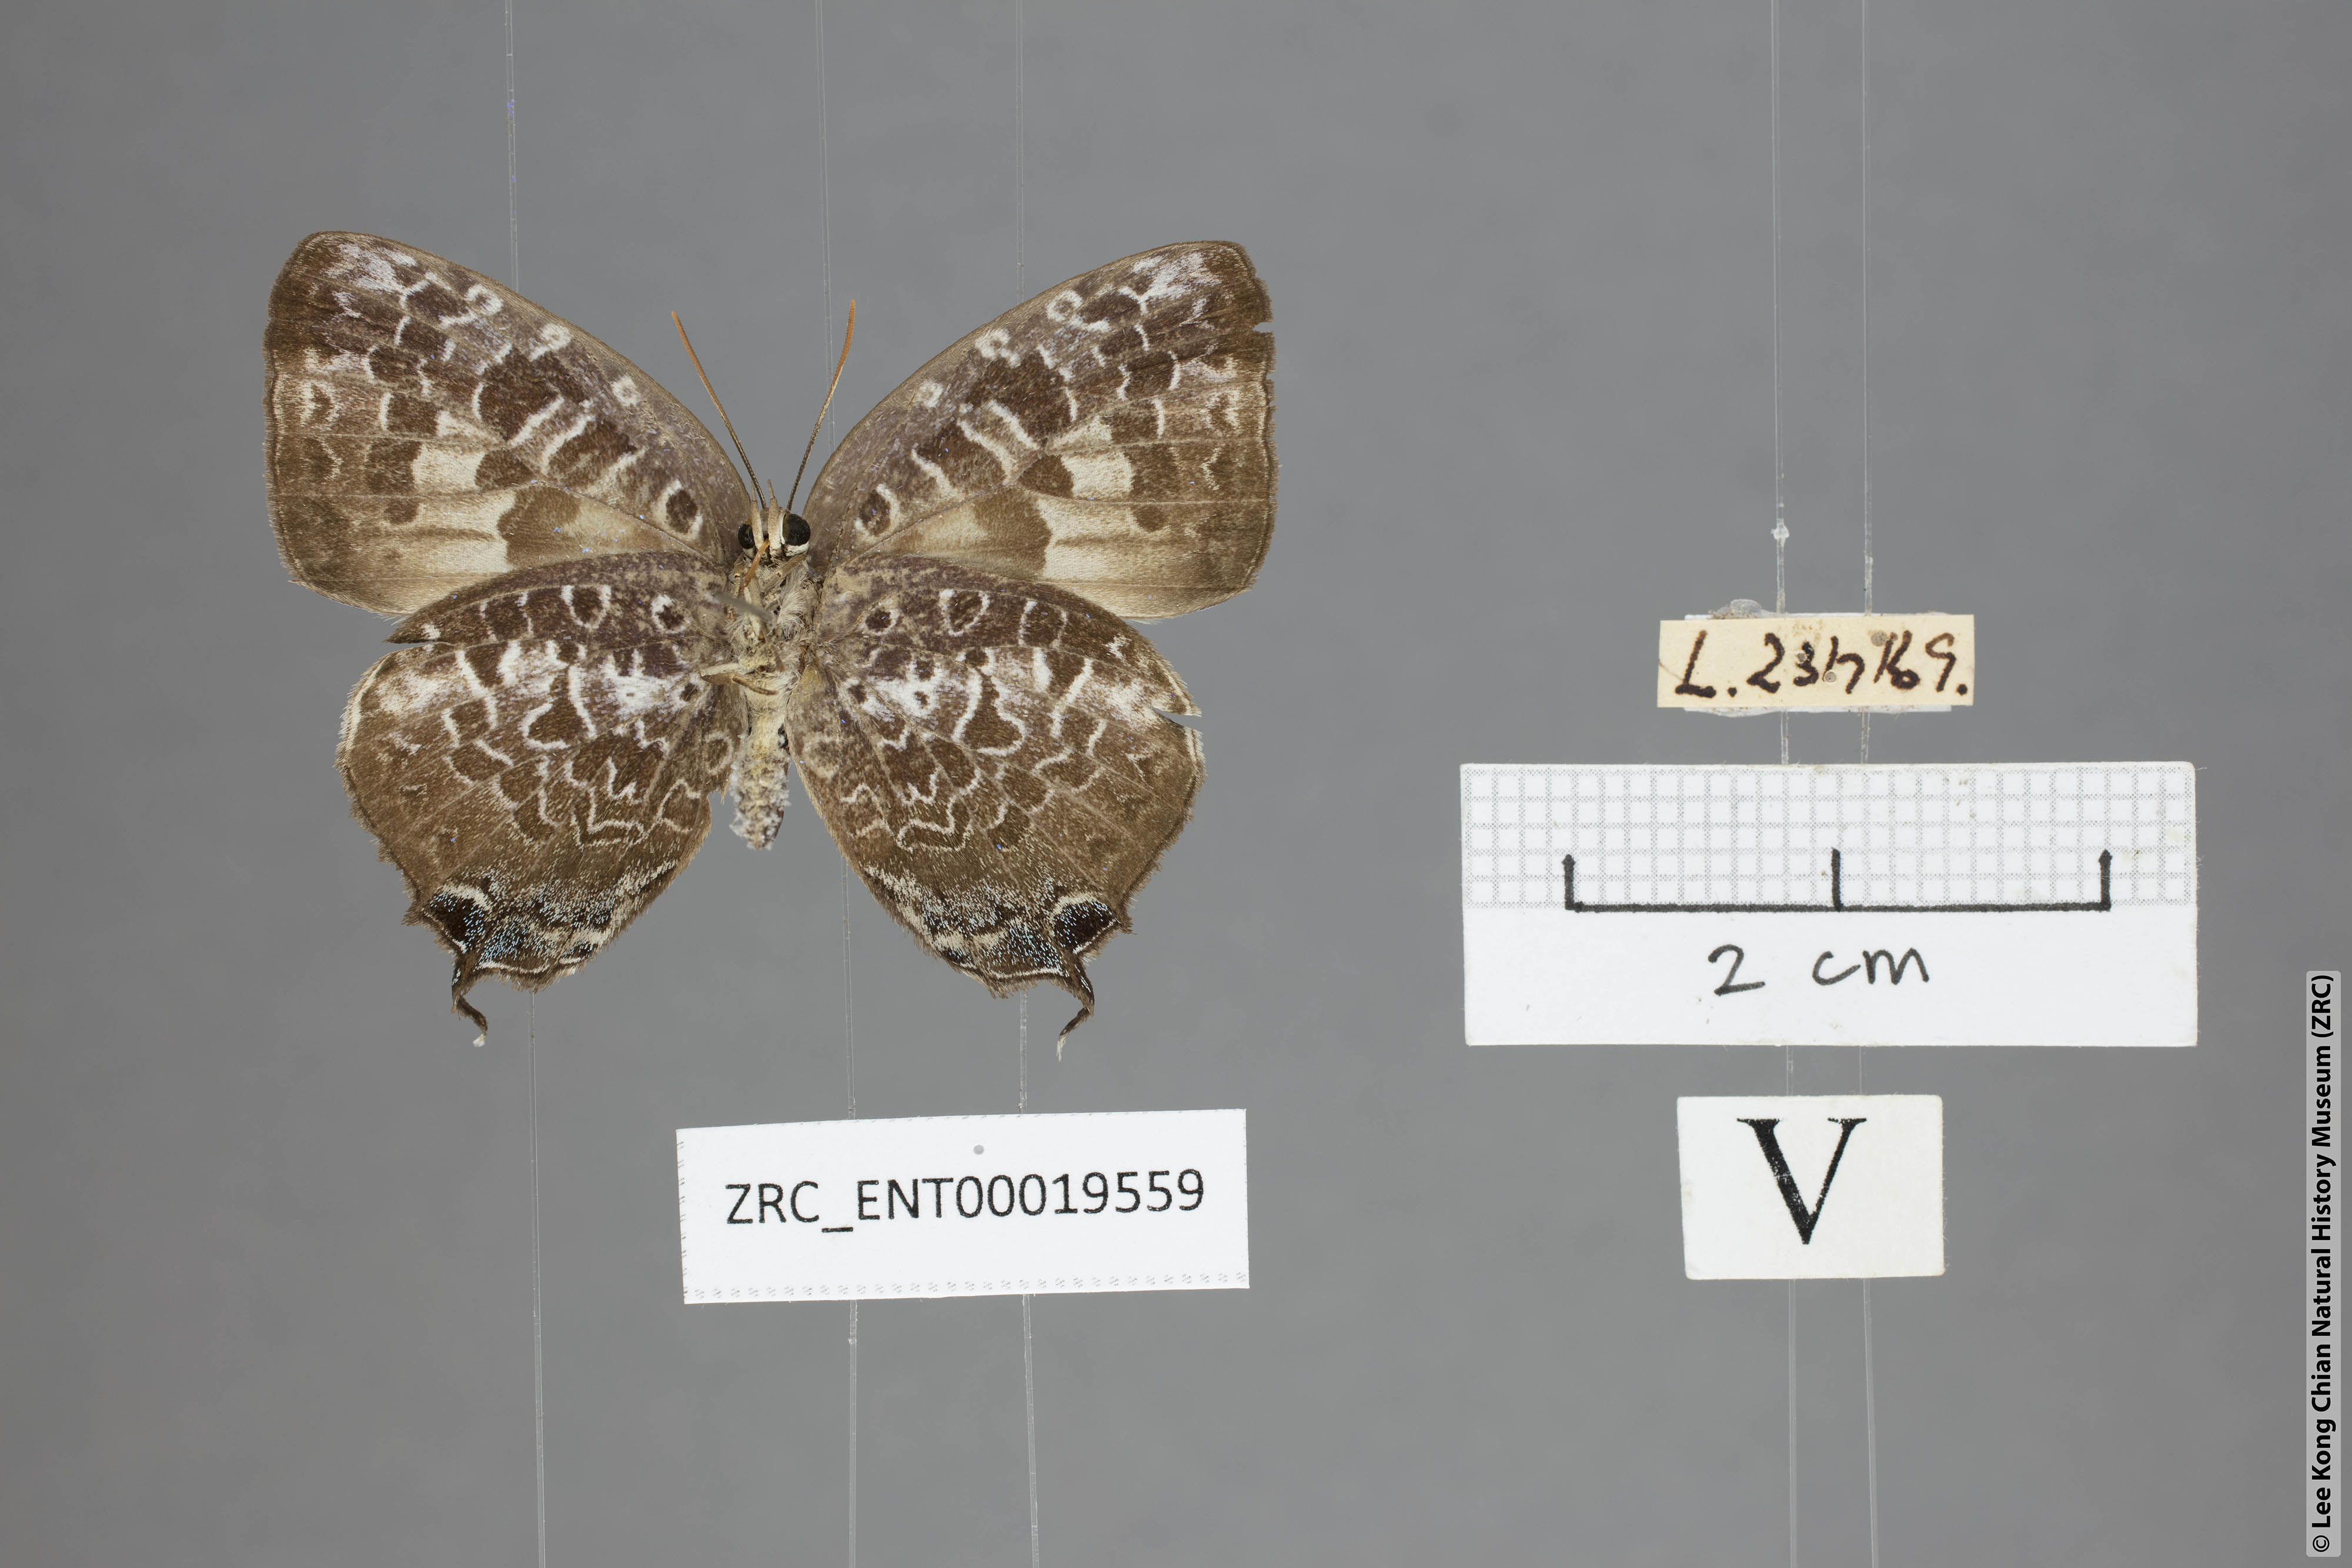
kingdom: Animalia
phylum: Arthropoda
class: Insecta
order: Lepidoptera
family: Lycaenidae
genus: Arhopala
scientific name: Arhopala ijauensis
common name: White-banded oakblue
